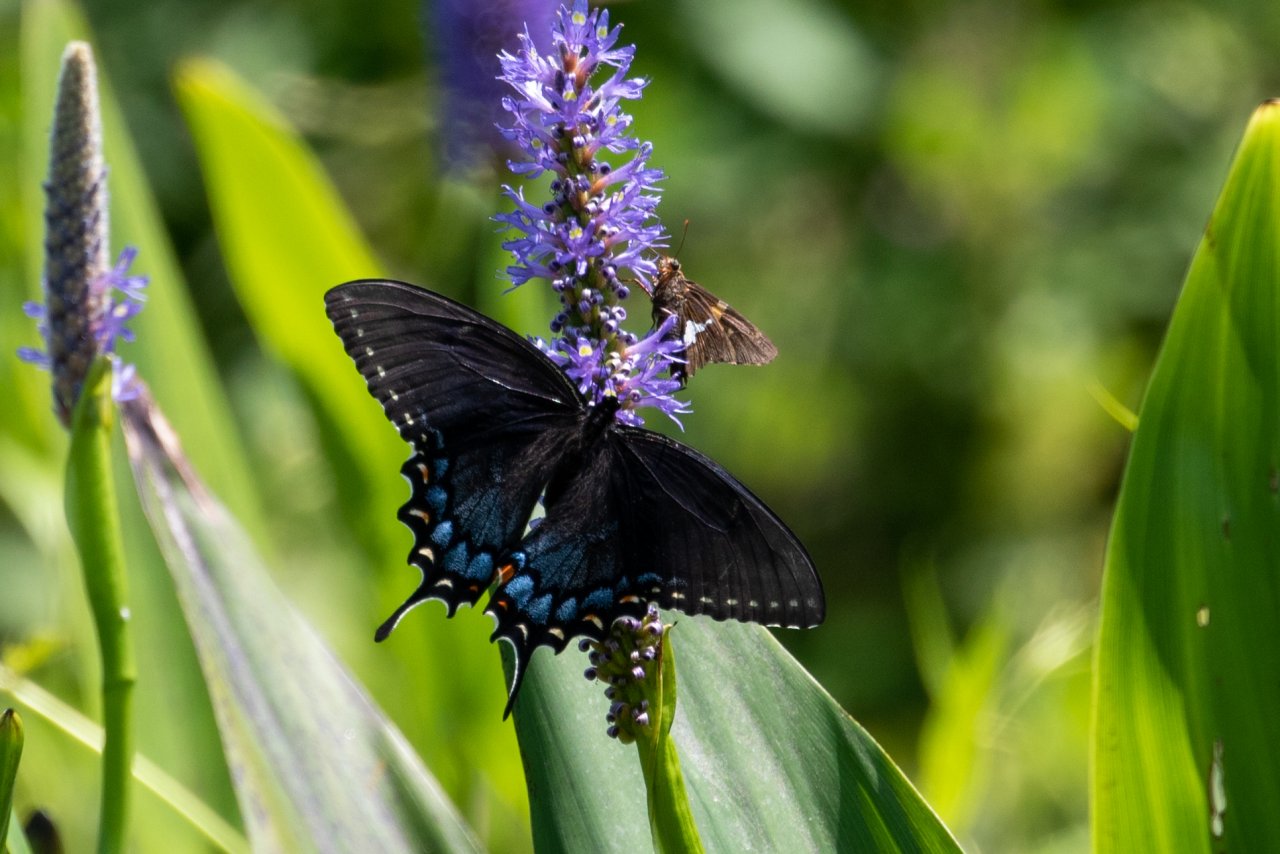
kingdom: Animalia
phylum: Arthropoda
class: Insecta
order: Lepidoptera
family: Papilionidae
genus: Pterourus
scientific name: Pterourus glaucus
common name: Eastern Tiger Swallowtail
